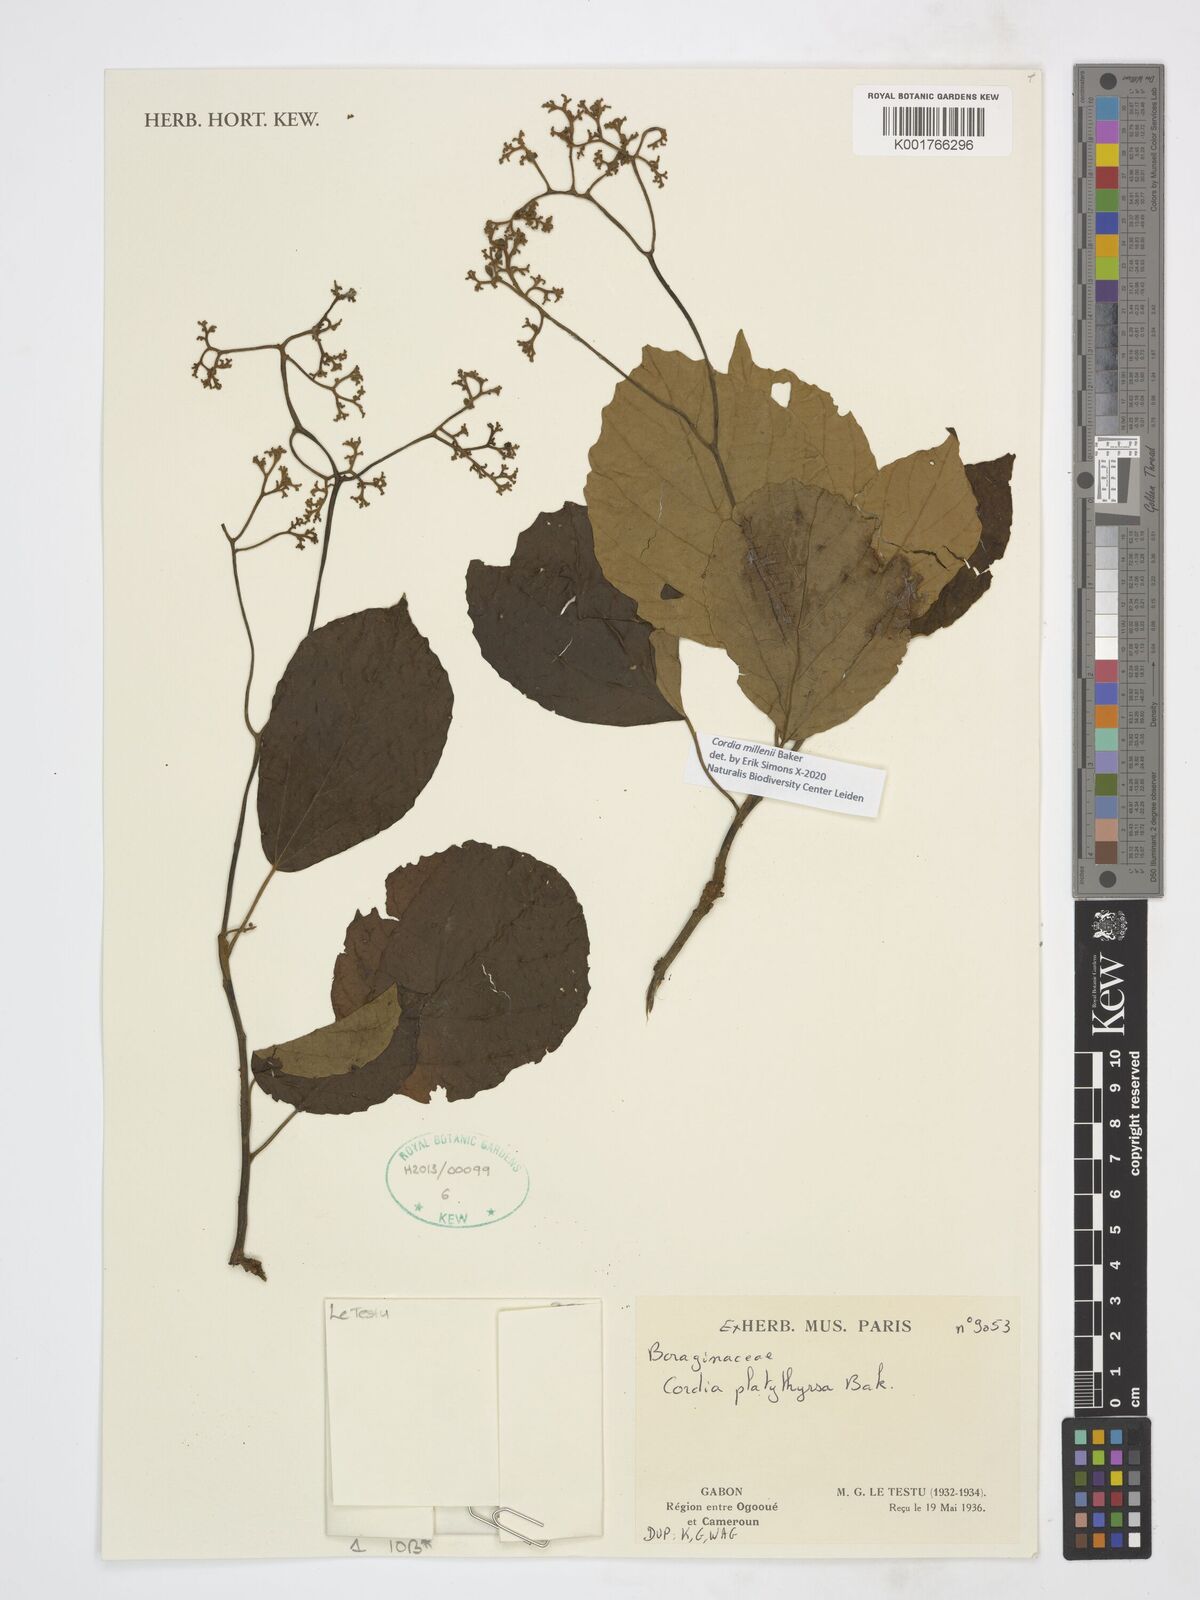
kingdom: Plantae
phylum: Tracheophyta
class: Magnoliopsida
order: Boraginales
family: Cordiaceae
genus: Cordia
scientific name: Cordia millenii
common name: Drum tree
